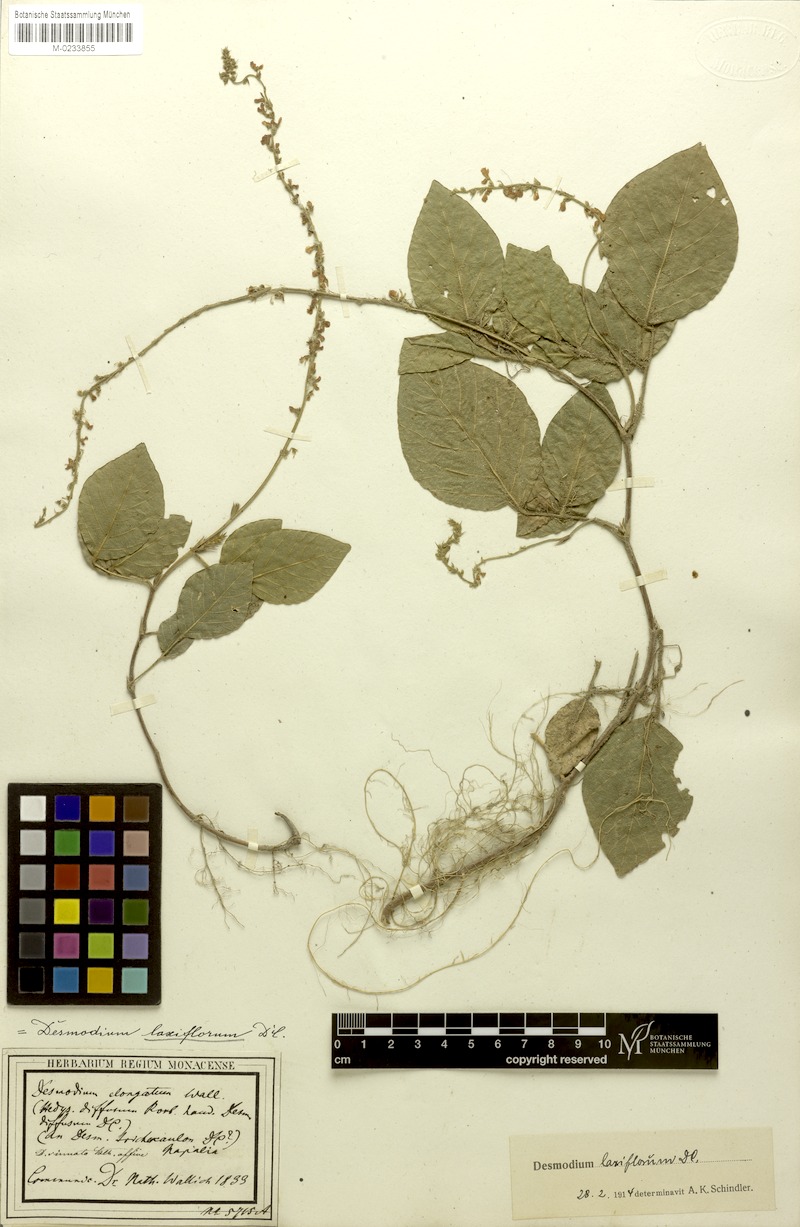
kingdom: Plantae
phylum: Tracheophyta
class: Magnoliopsida
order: Fabales
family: Fabaceae
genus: Sohmaea
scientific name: Sohmaea laxiflora
